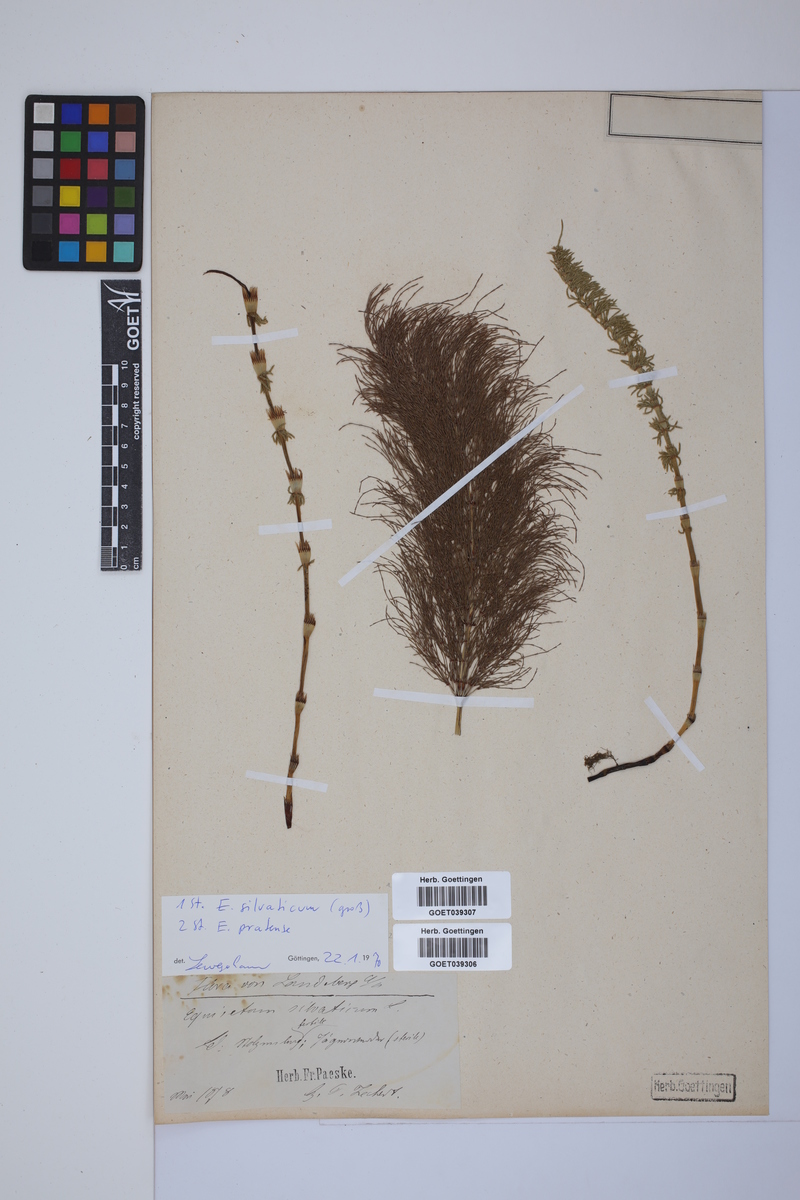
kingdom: Plantae
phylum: Tracheophyta
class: Polypodiopsida
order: Equisetales
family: Equisetaceae
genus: Equisetum
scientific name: Equisetum pratense
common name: Meadow horsetail
